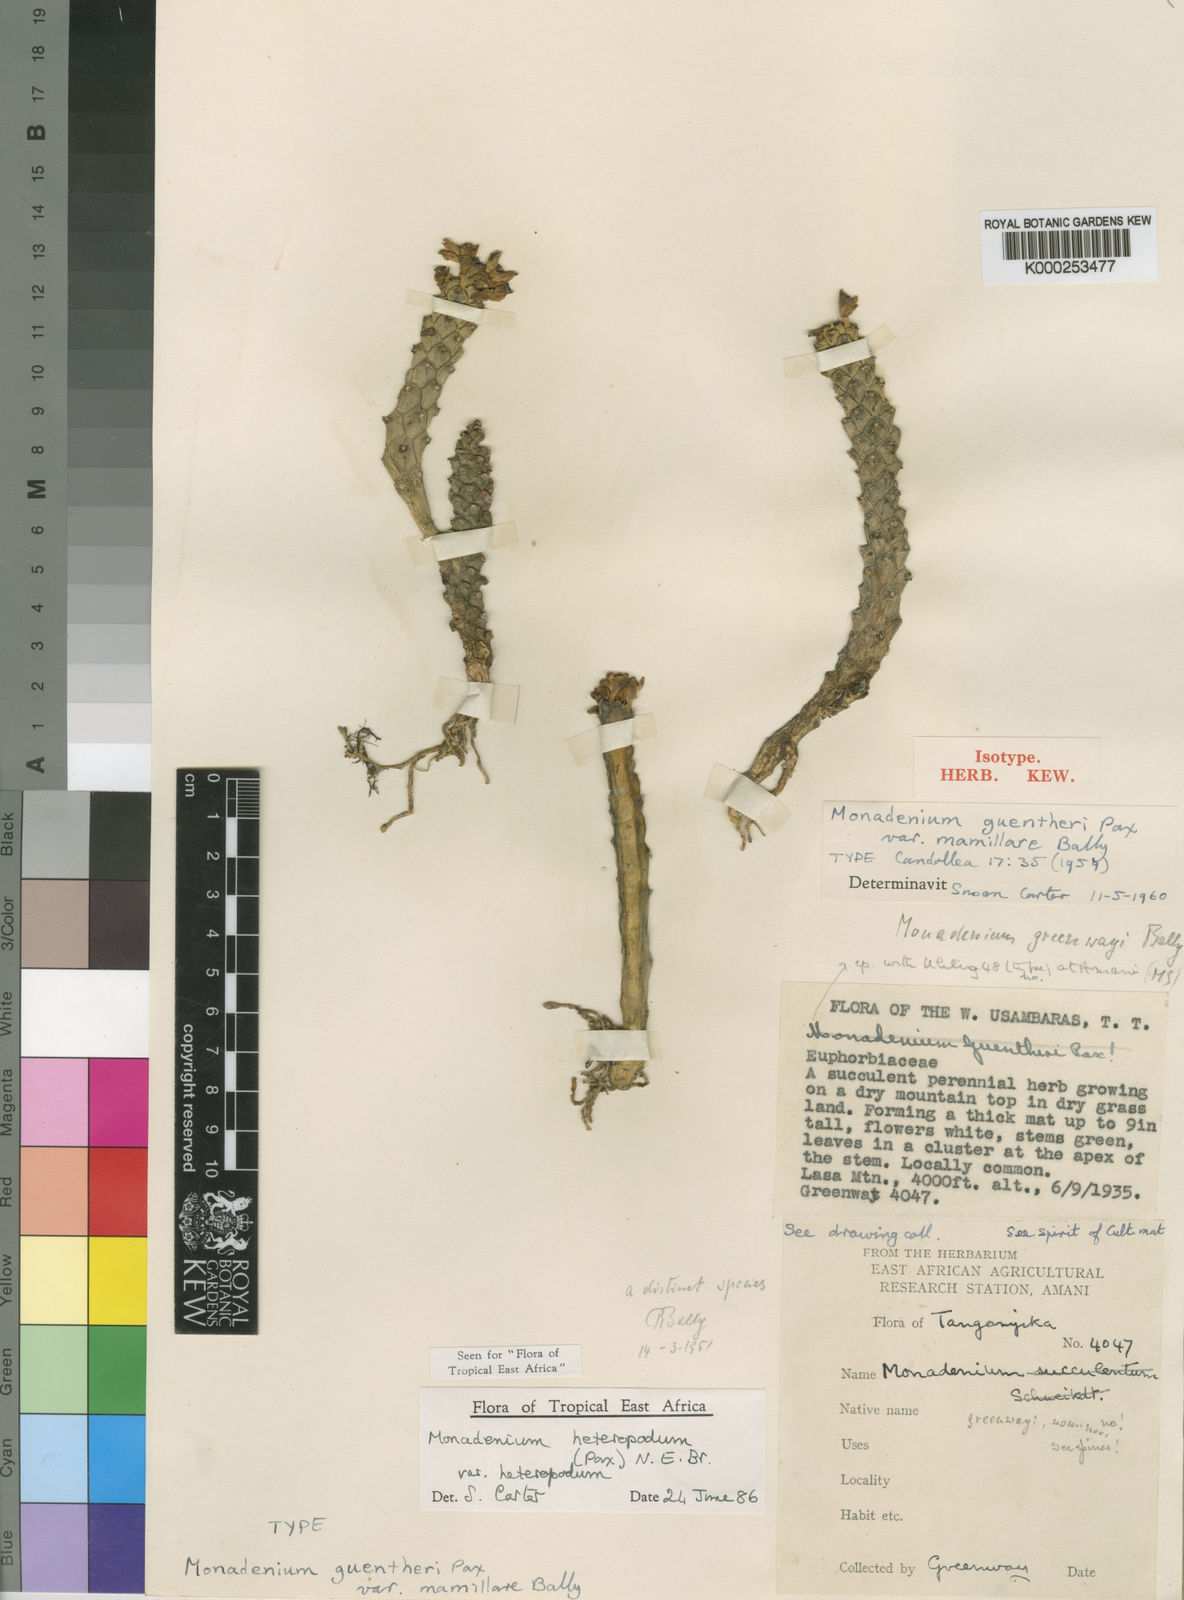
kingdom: Plantae
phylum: Tracheophyta
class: Magnoliopsida
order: Malpighiales
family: Euphorbiaceae
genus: Euphorbia
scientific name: Euphorbia heteropodum
